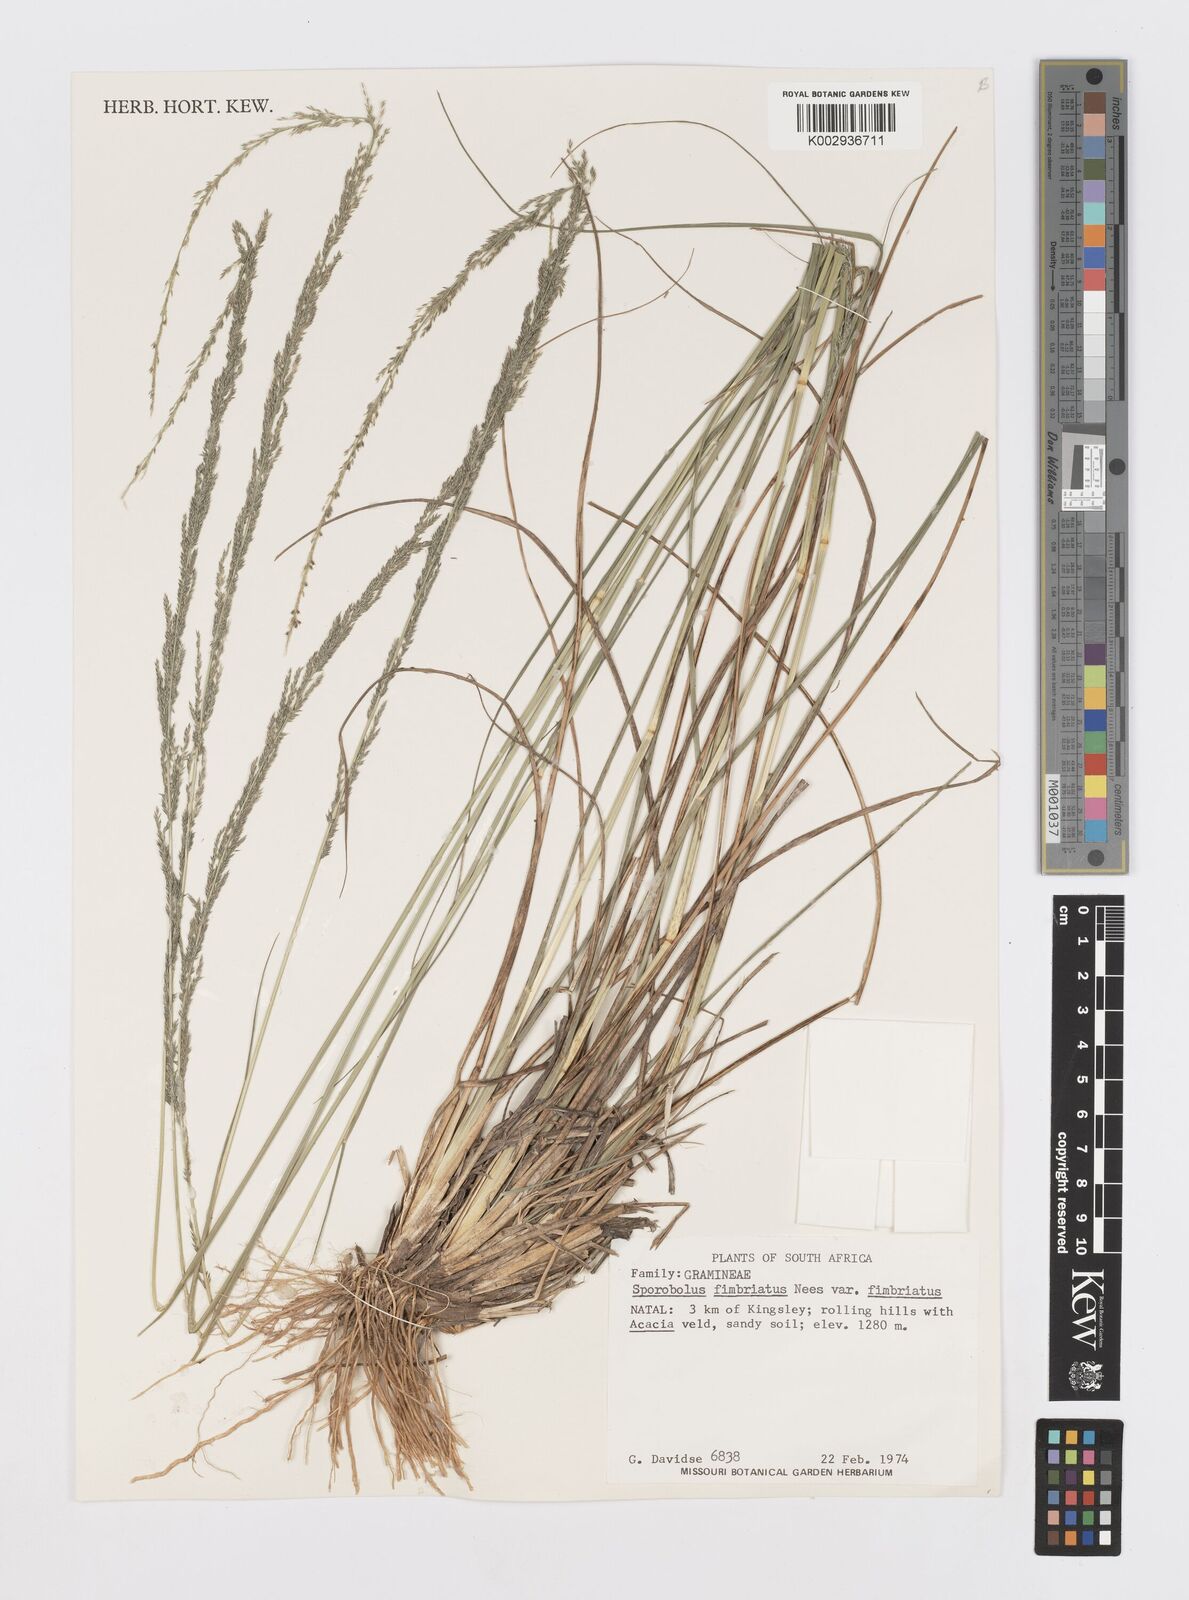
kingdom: Plantae
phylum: Tracheophyta
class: Liliopsida
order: Poales
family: Poaceae
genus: Sporobolus
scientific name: Sporobolus fimbriatus
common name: Fringed dropseed
